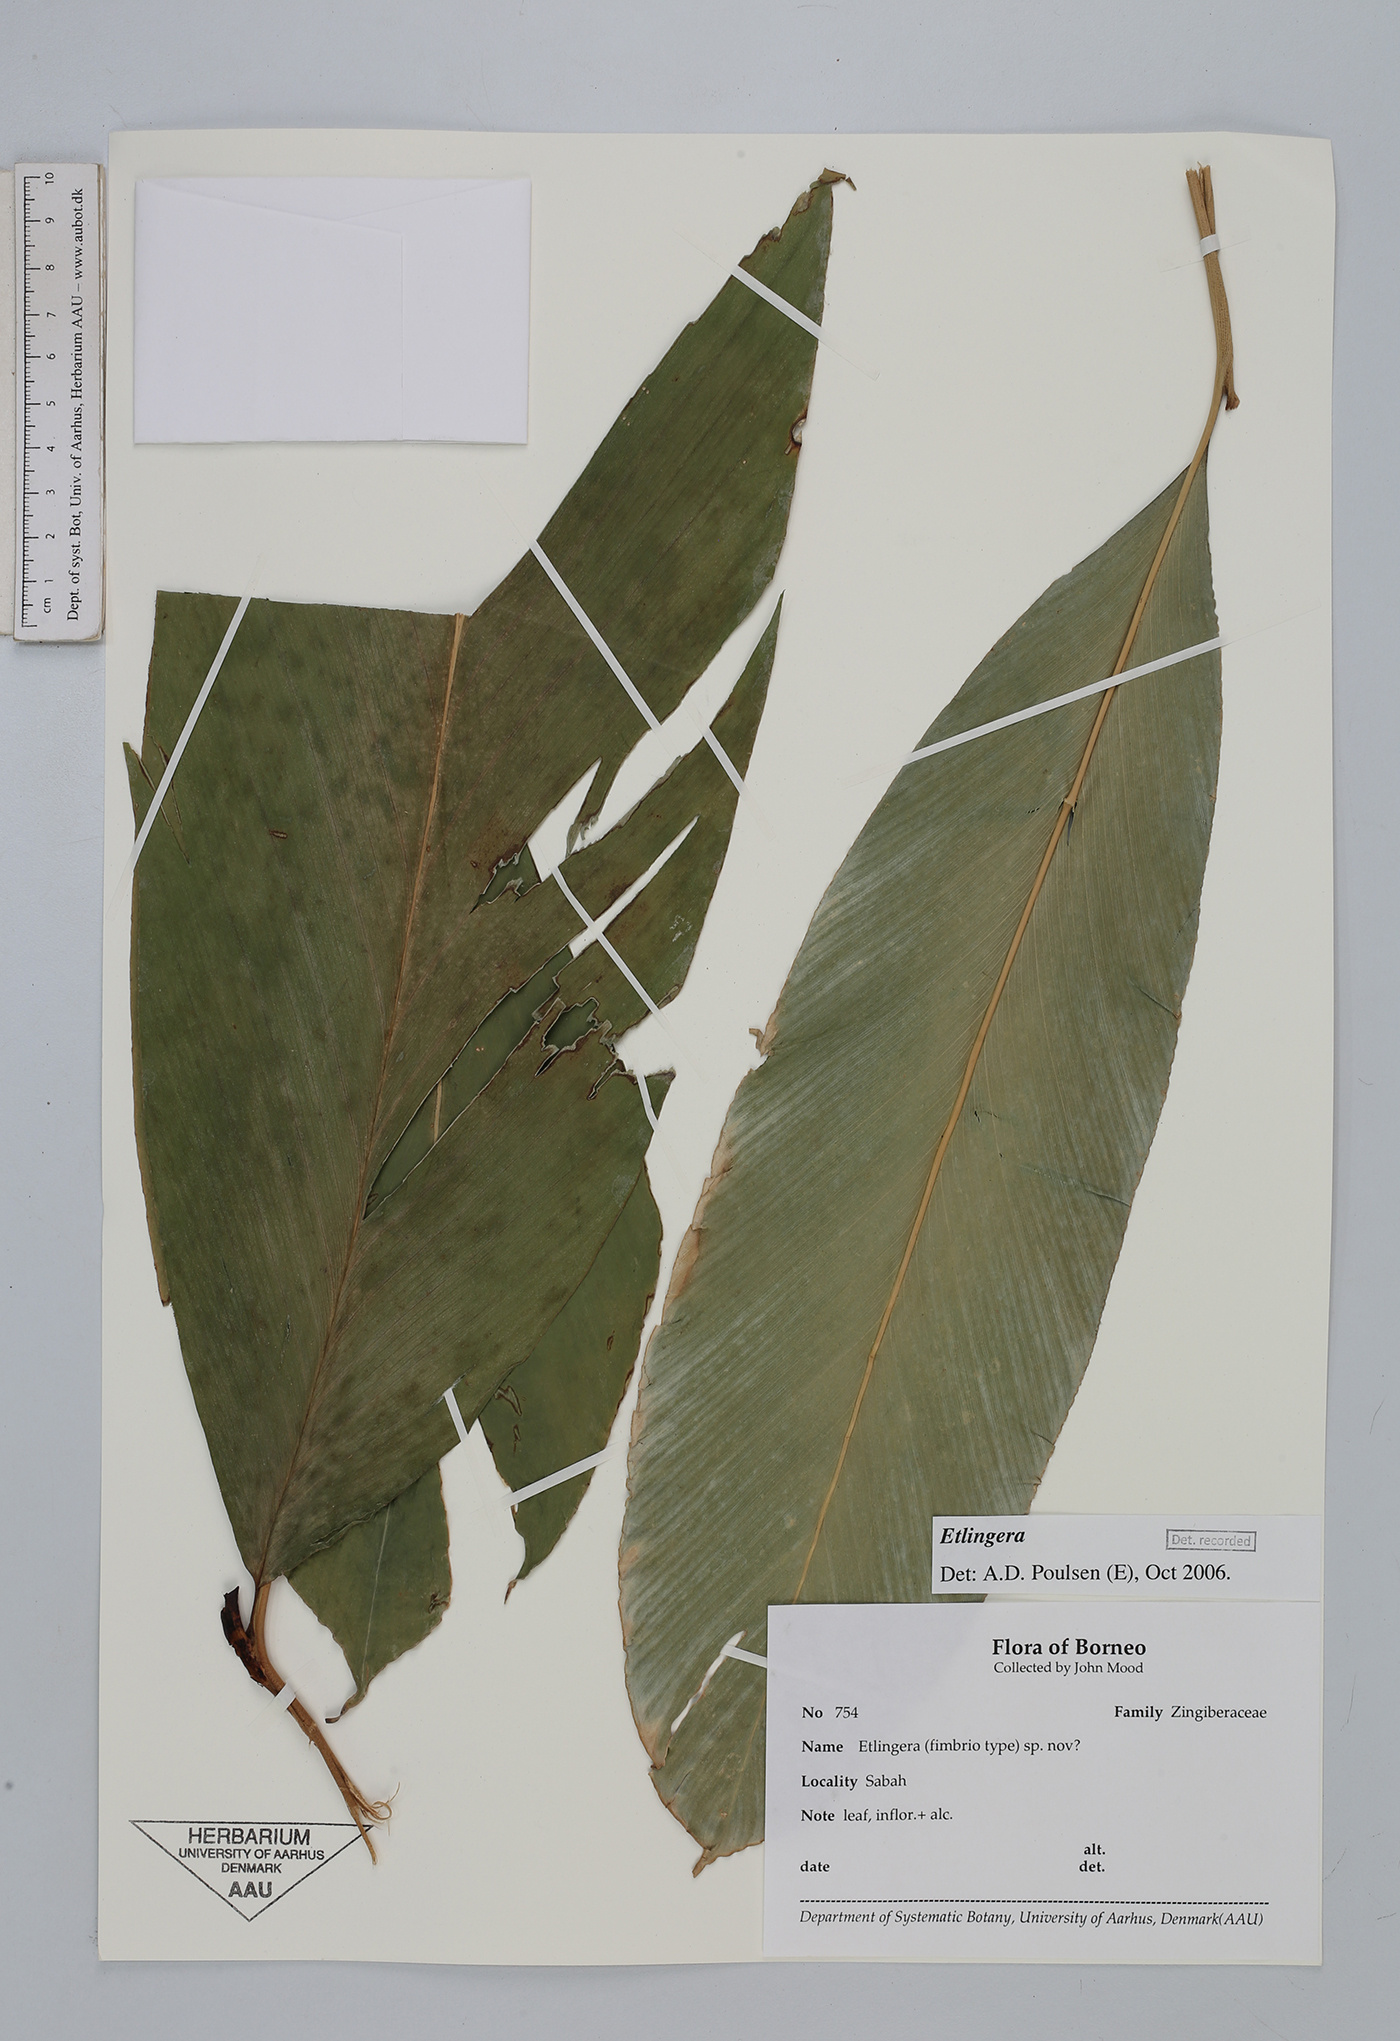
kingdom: Plantae
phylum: Tracheophyta
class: Liliopsida
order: Zingiberales
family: Zingiberaceae
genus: Etlingera
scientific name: Etlingera
